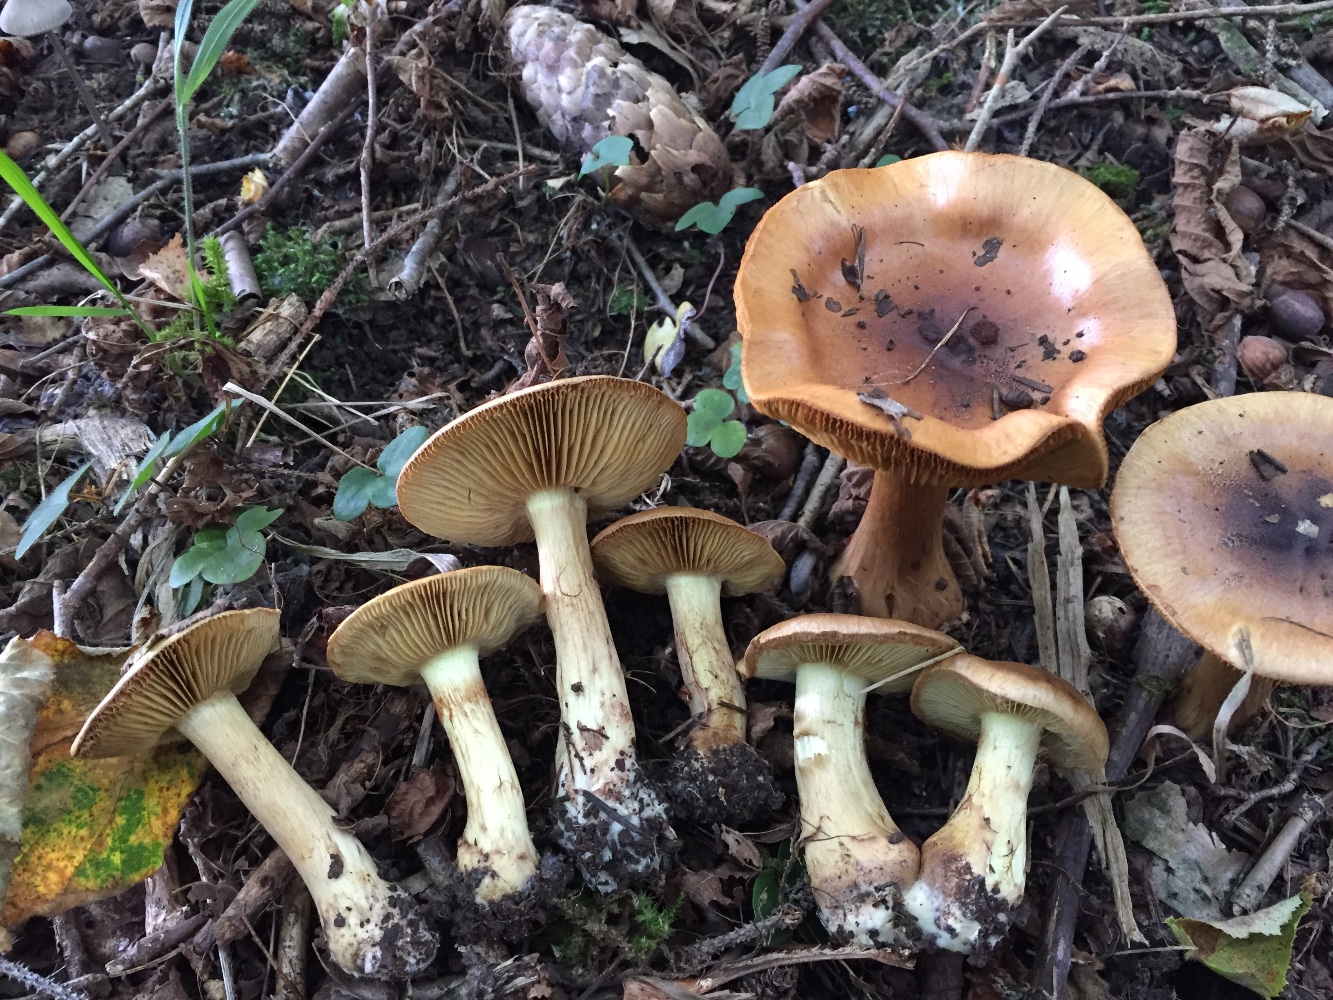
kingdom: Fungi
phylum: Basidiomycota
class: Agaricomycetes
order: Agaricales
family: Cortinariaceae
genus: Cortinarius
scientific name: Cortinarius nanceiensis
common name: banan-slørhat
